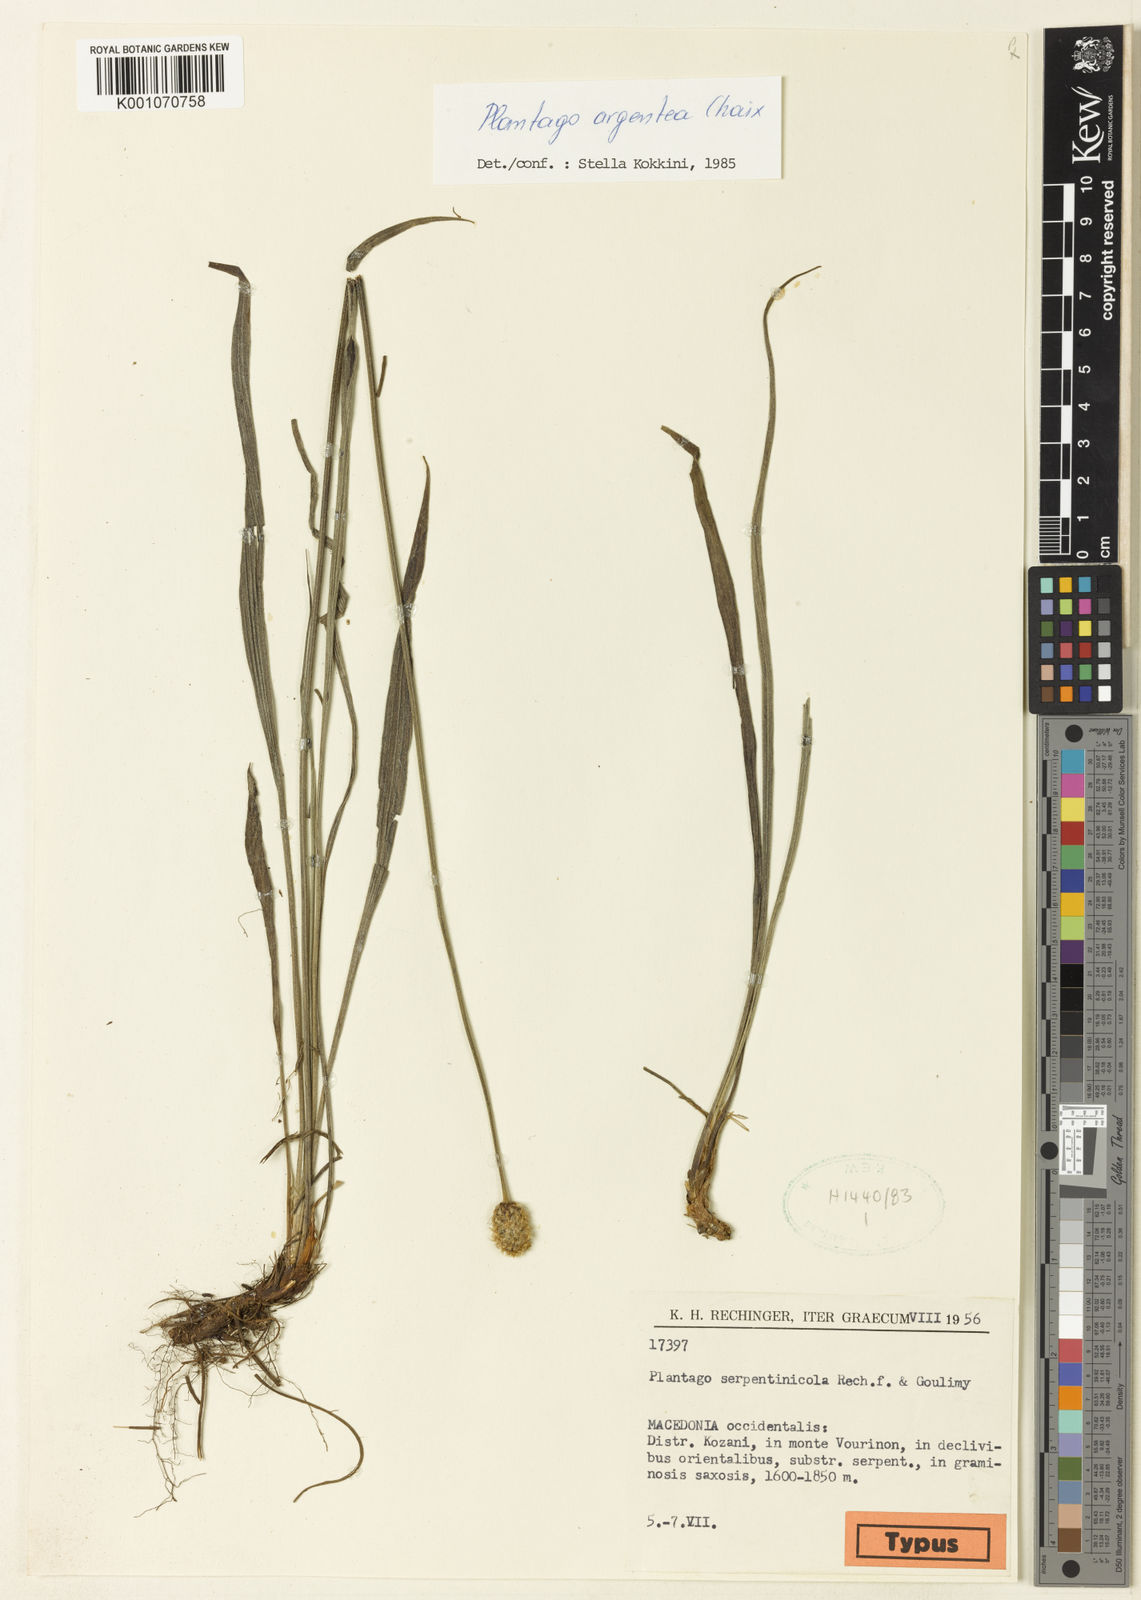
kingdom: Plantae
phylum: Tracheophyta
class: Magnoliopsida
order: Lamiales
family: Plantaginaceae
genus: Plantago
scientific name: Plantago argentea
